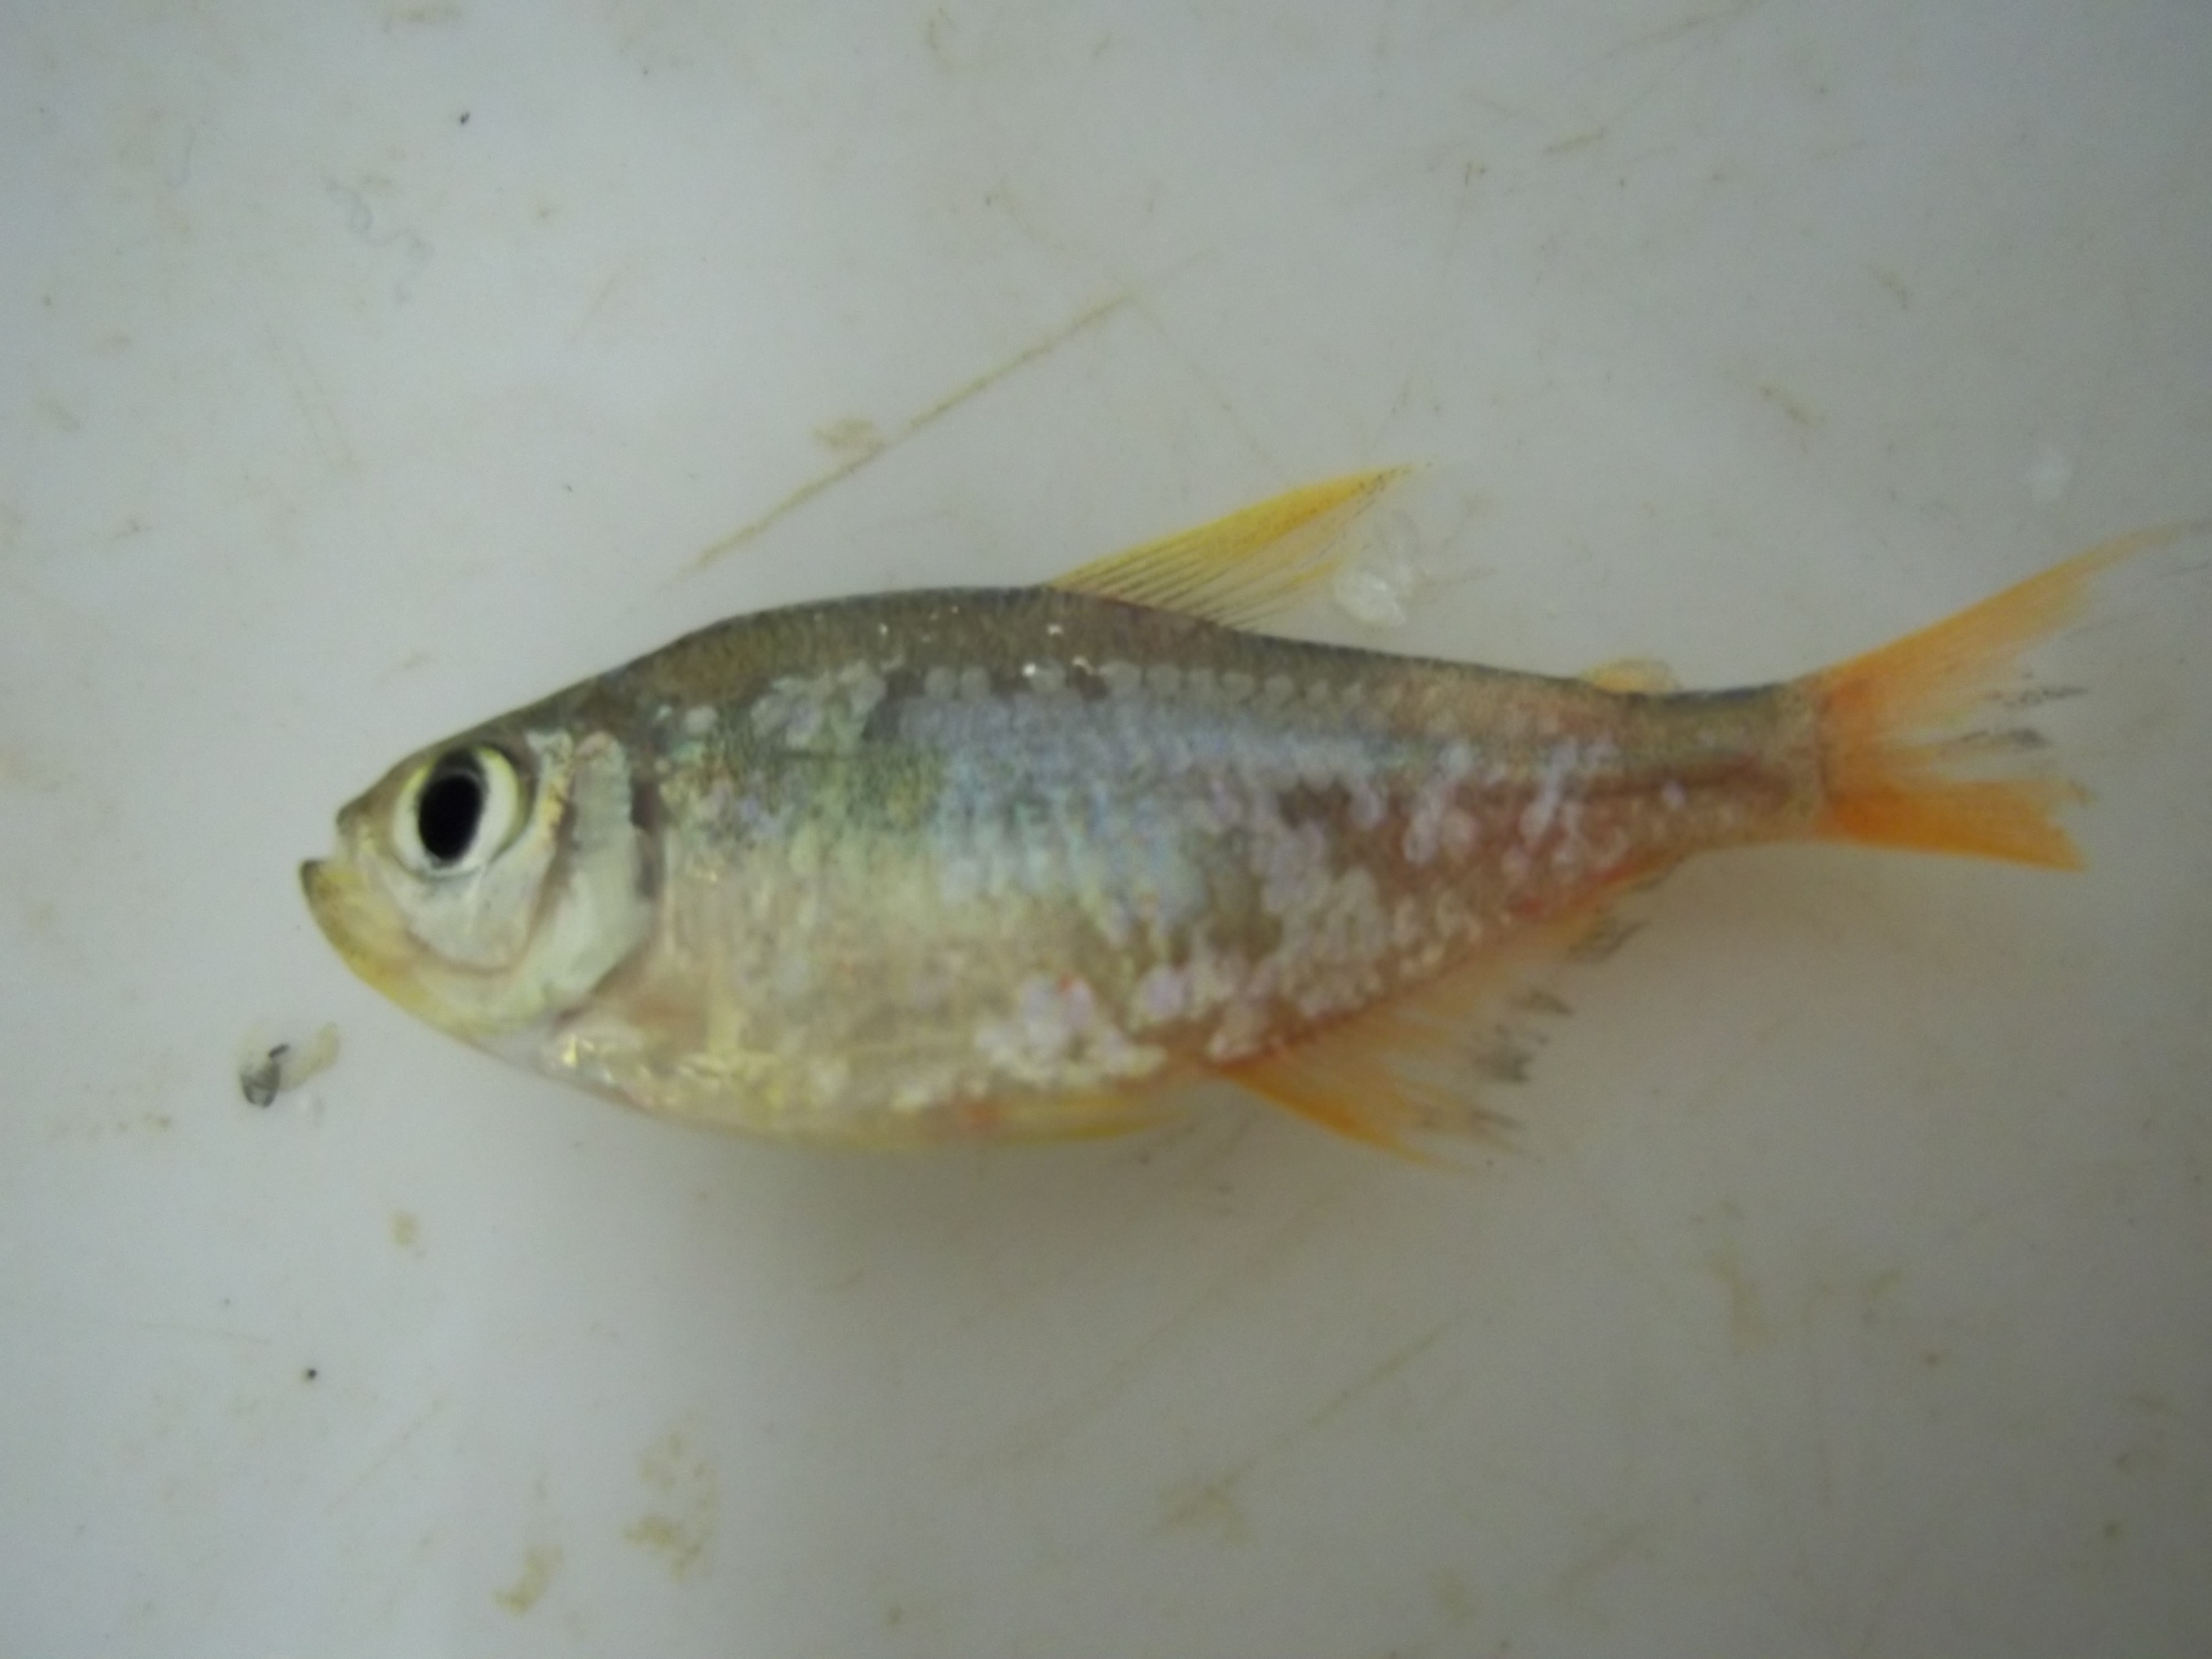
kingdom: Animalia
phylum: Chordata
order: Characiformes
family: Characidae
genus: Hyphessobrycon
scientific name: Hyphessobrycon columbianus
